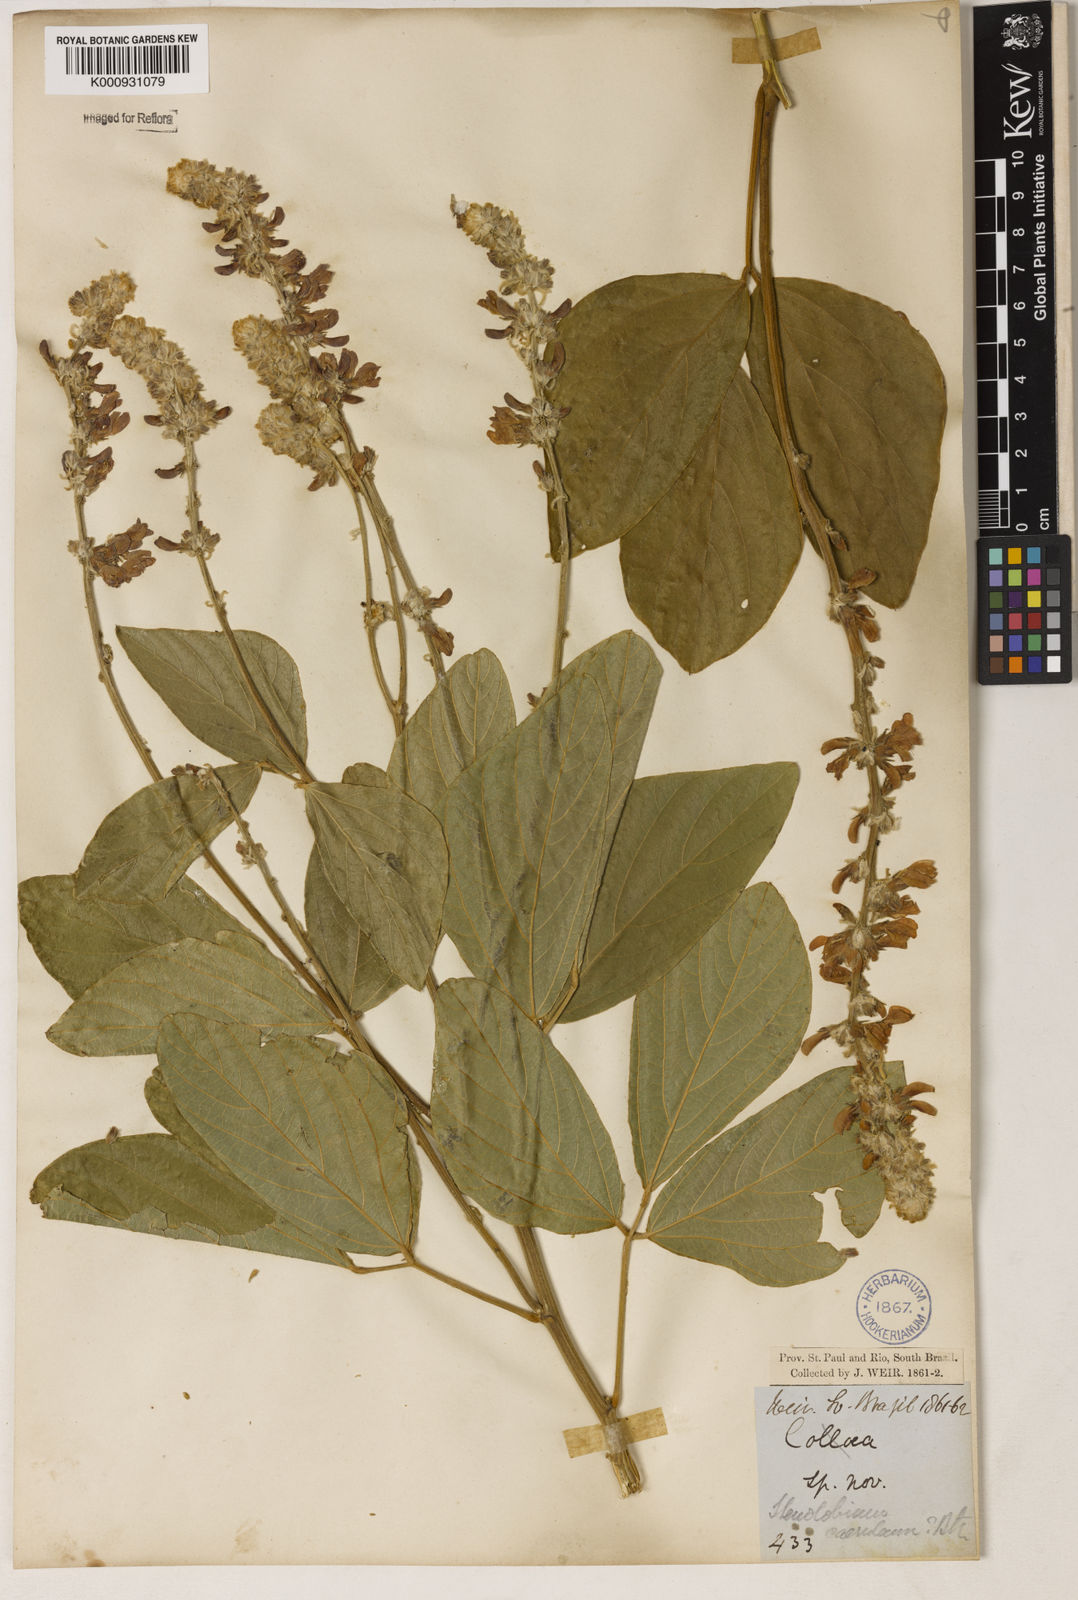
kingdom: Plantae
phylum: Tracheophyta
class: Magnoliopsida
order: Fabales
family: Fabaceae
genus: Calopogonium
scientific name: Calopogonium caeruleum
